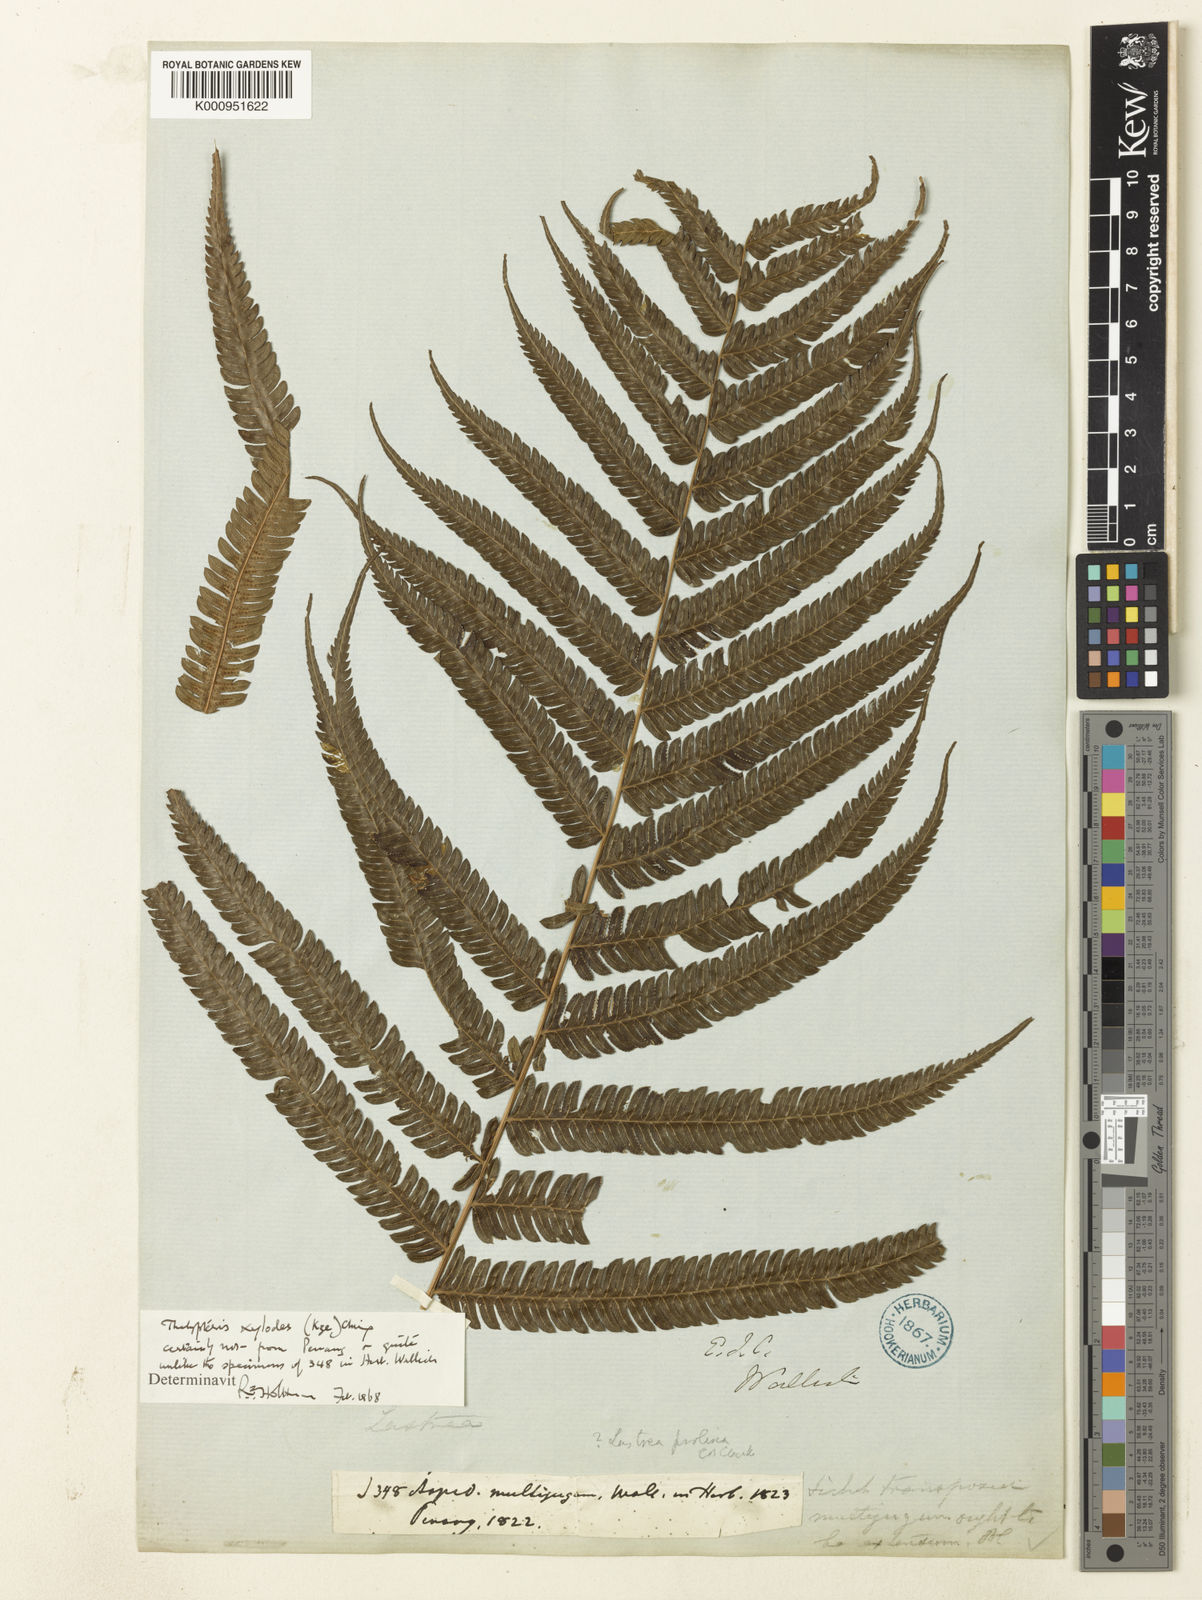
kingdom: Plantae
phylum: Tracheophyta
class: Polypodiopsida
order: Polypodiales
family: Thelypteridaceae
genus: Pseudocyclosorus
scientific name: Pseudocyclosorus tylodes
